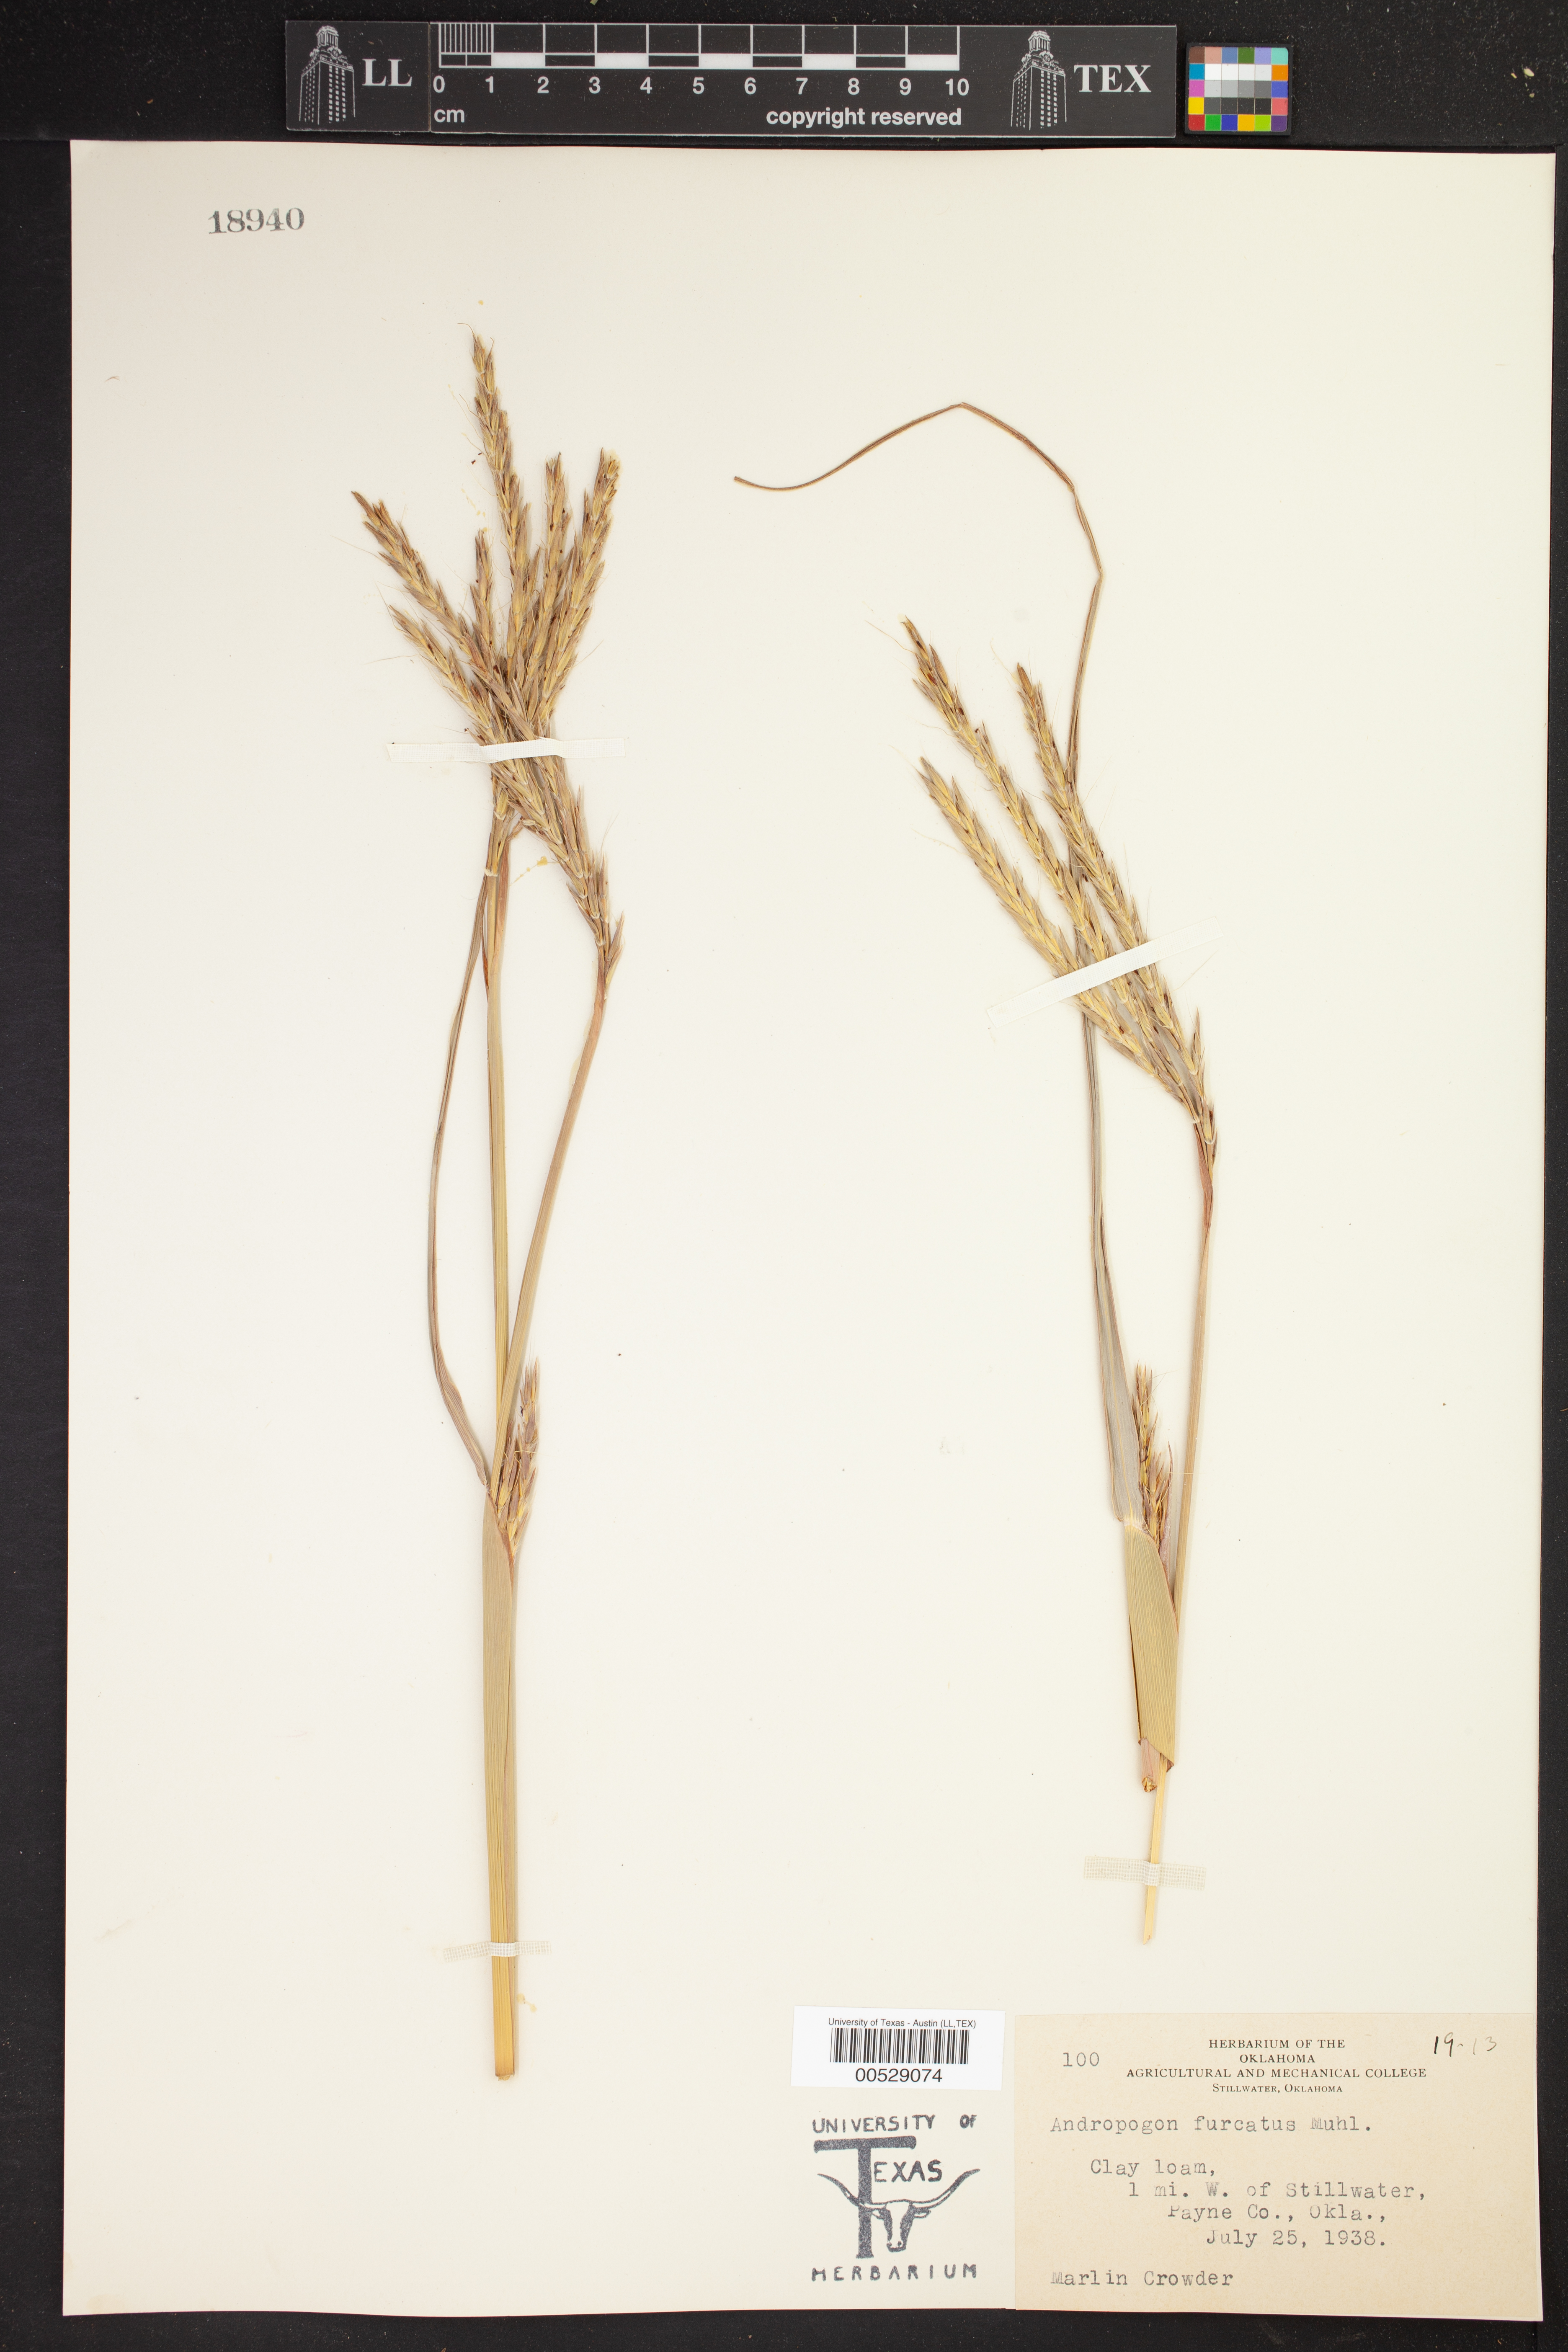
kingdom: Plantae
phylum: Tracheophyta
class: Liliopsida
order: Poales
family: Poaceae
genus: Andropogon
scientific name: Andropogon gerardi
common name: Big bluestem
